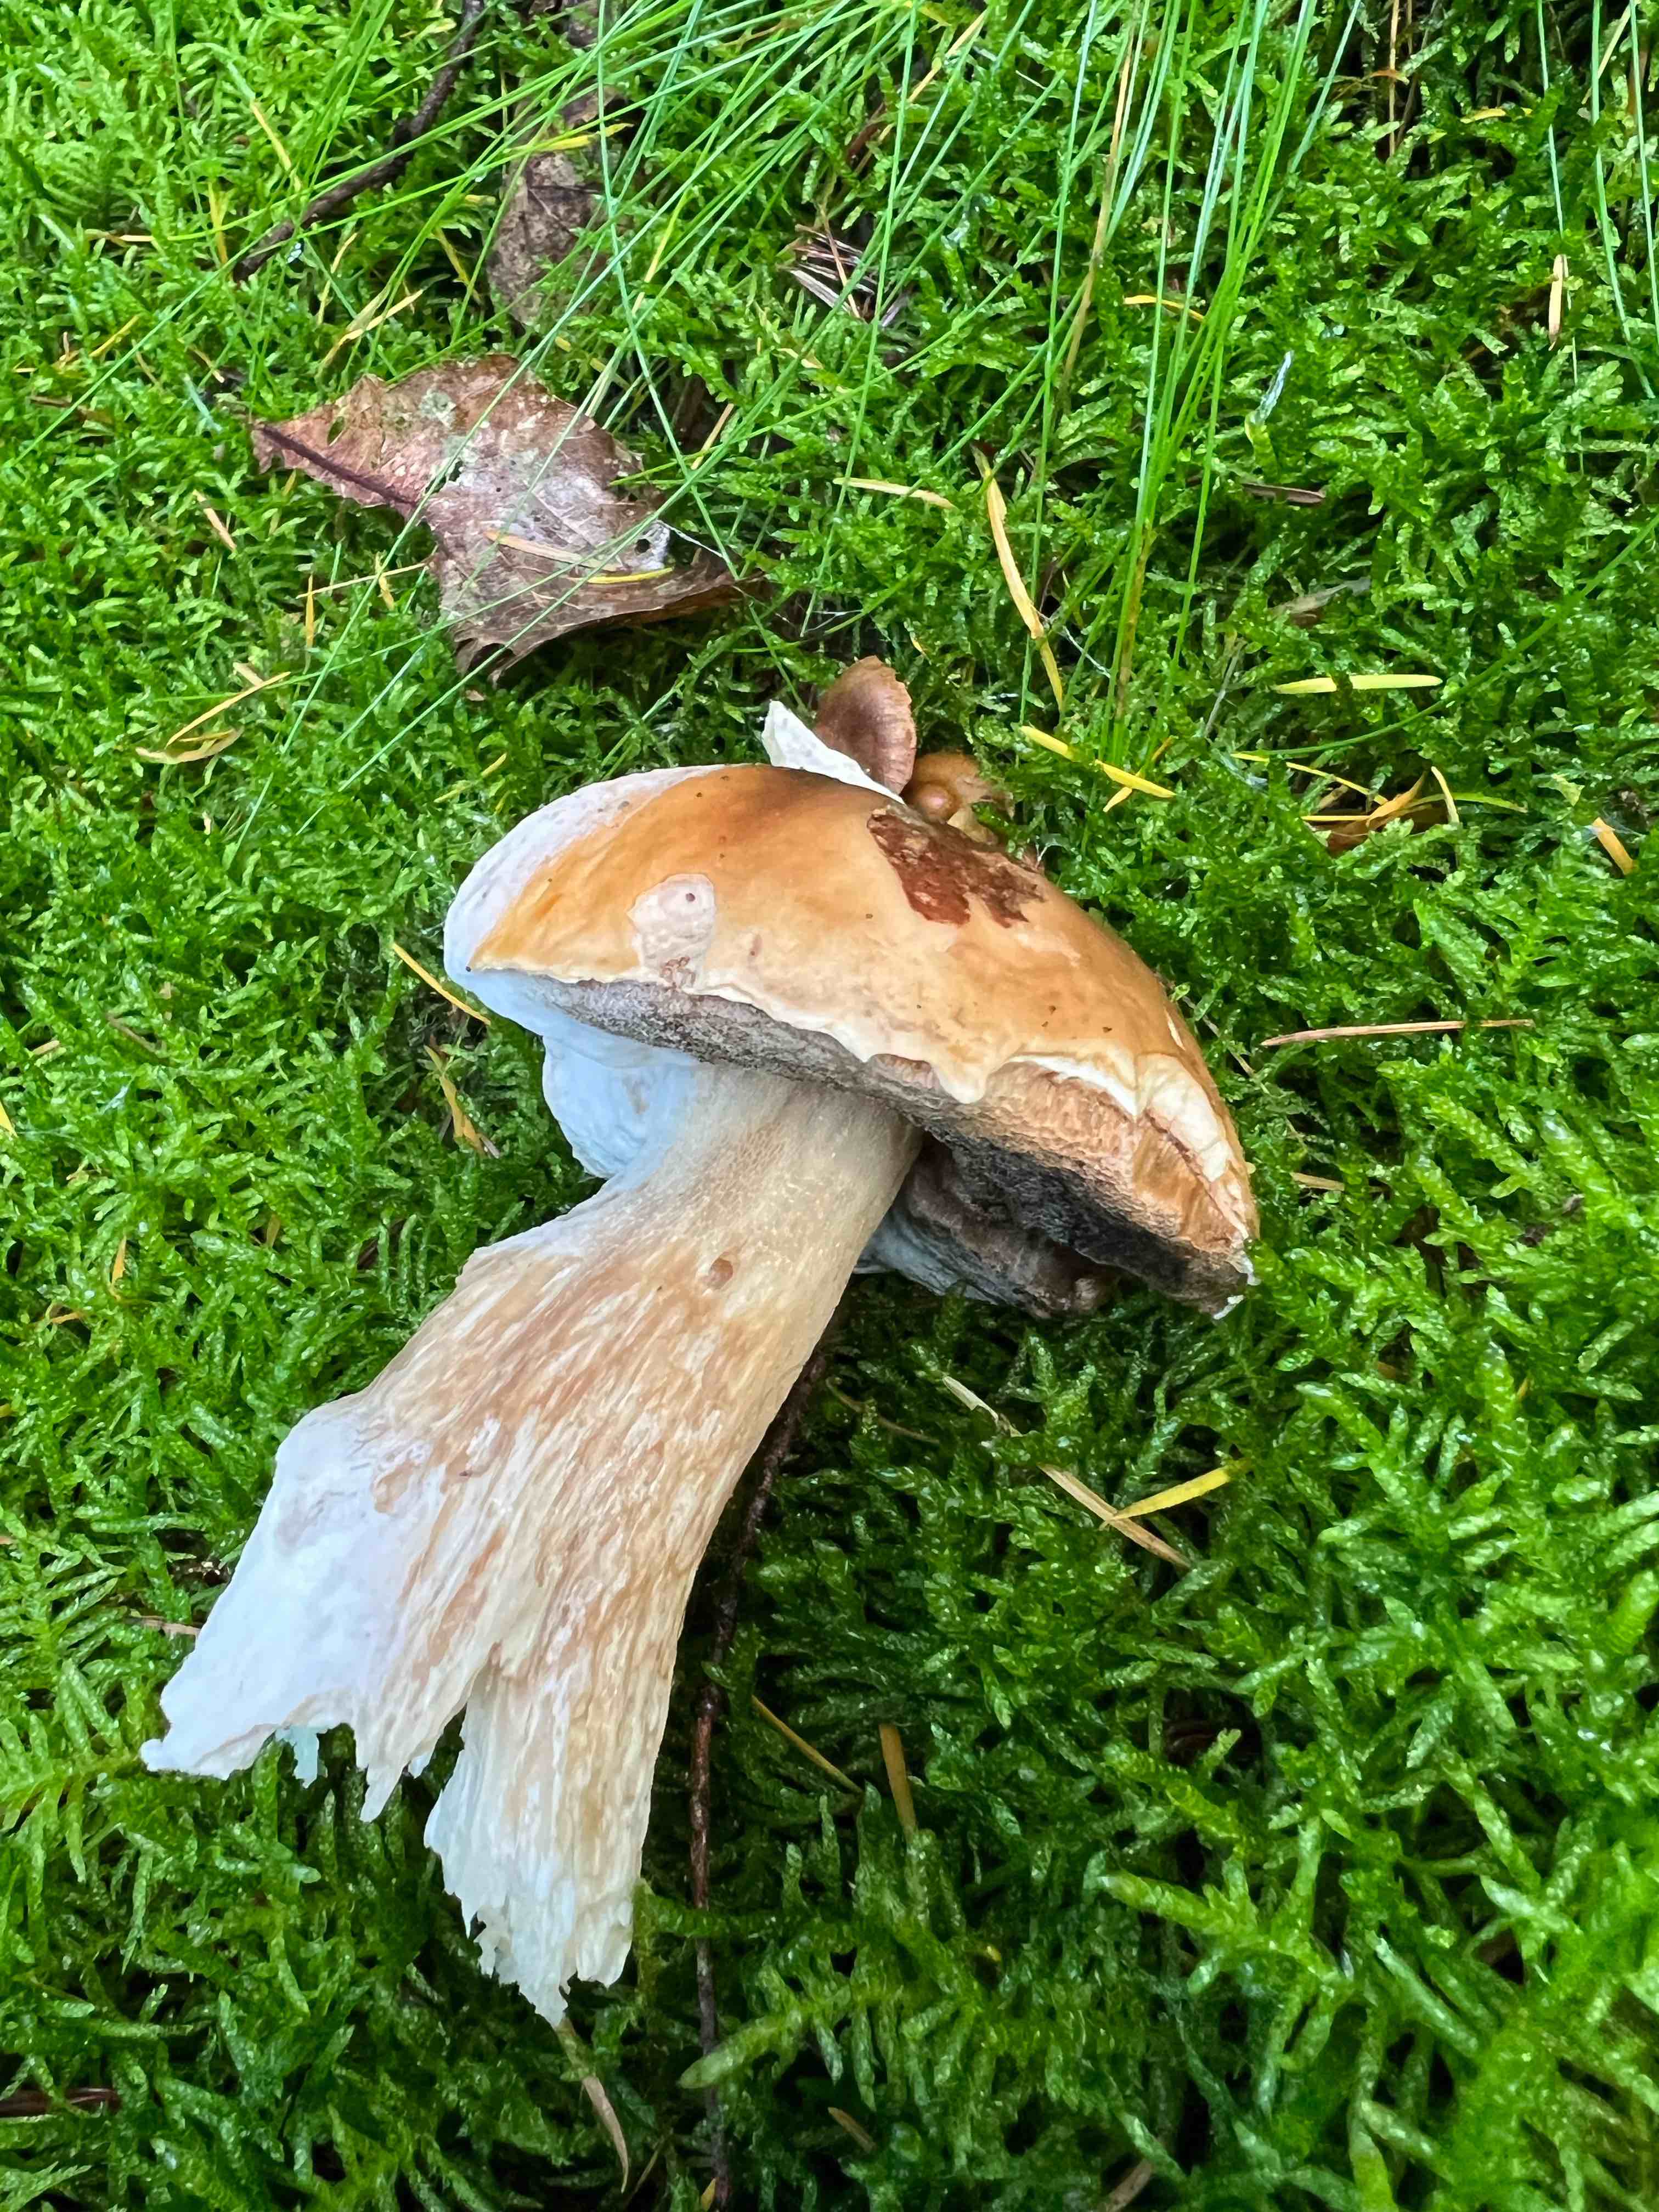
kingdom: Fungi
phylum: Basidiomycota
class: Agaricomycetes
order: Boletales
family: Boletaceae
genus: Boletus
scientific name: Boletus edulis
